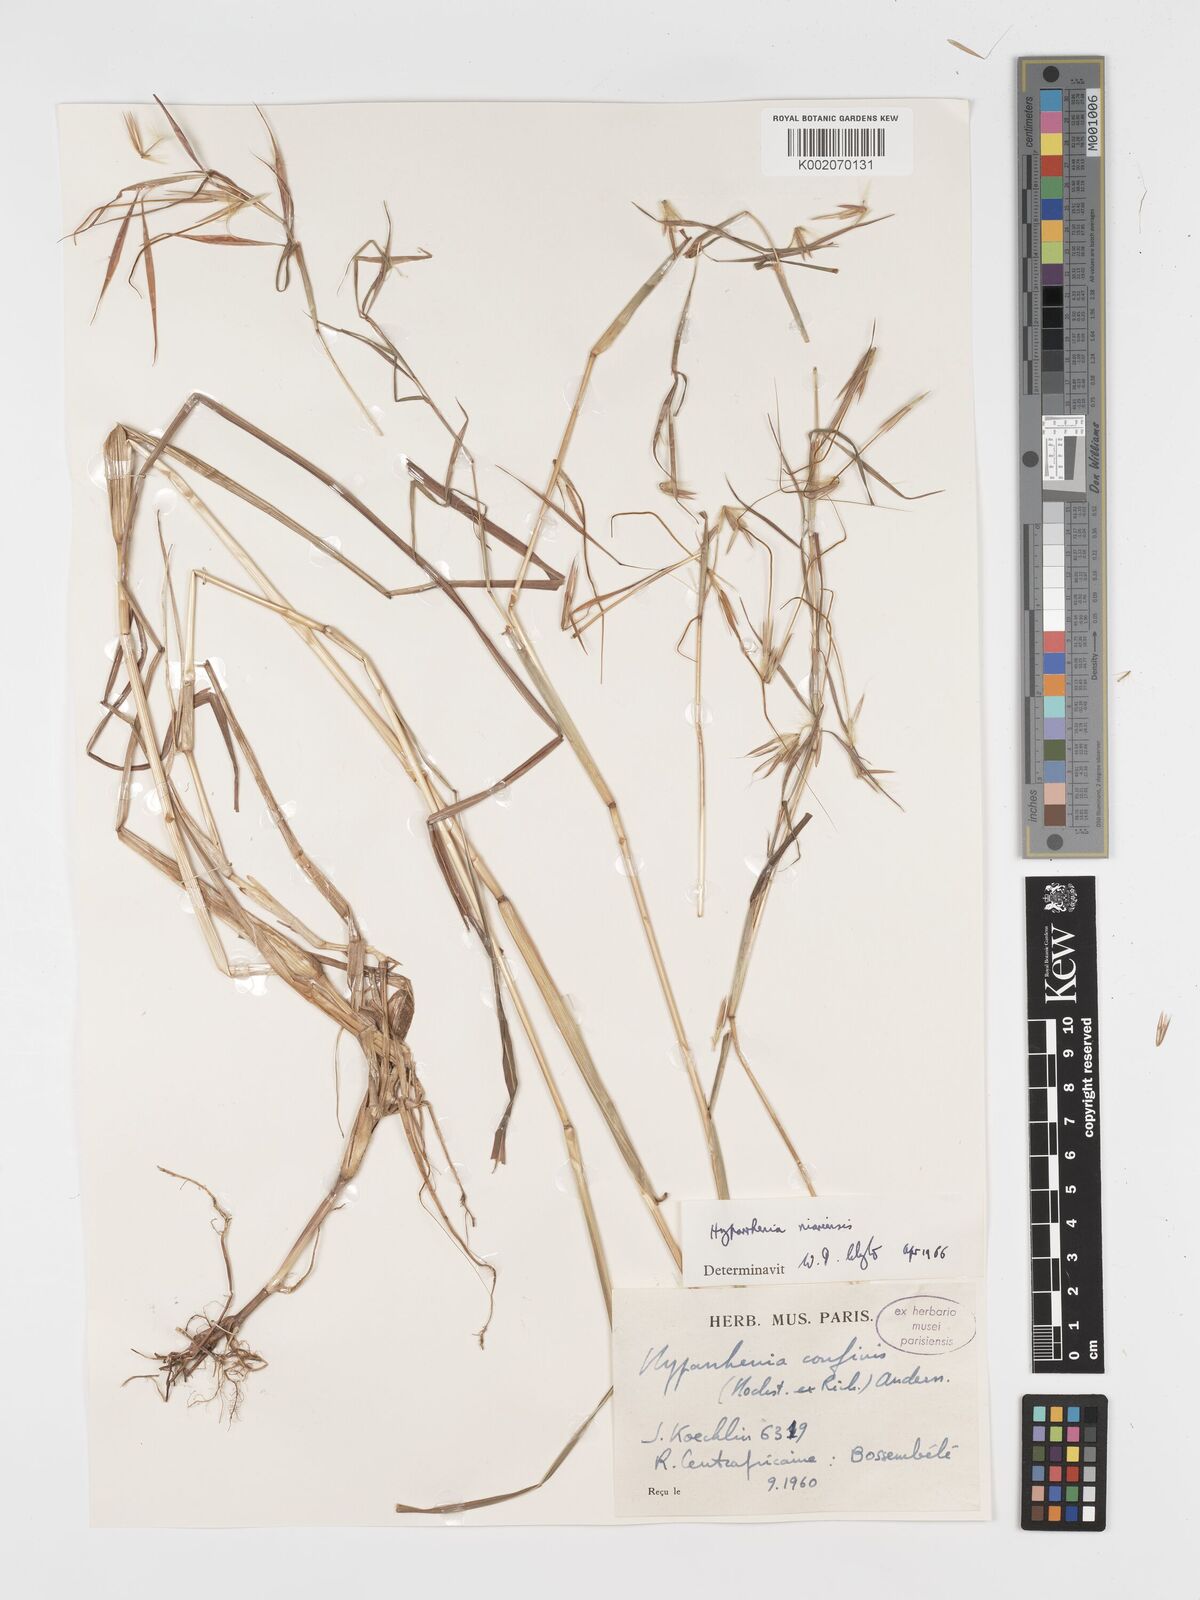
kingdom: Plantae
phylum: Tracheophyta
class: Liliopsida
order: Poales
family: Poaceae
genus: Hyparrhenia
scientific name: Hyparrhenia niariensis
